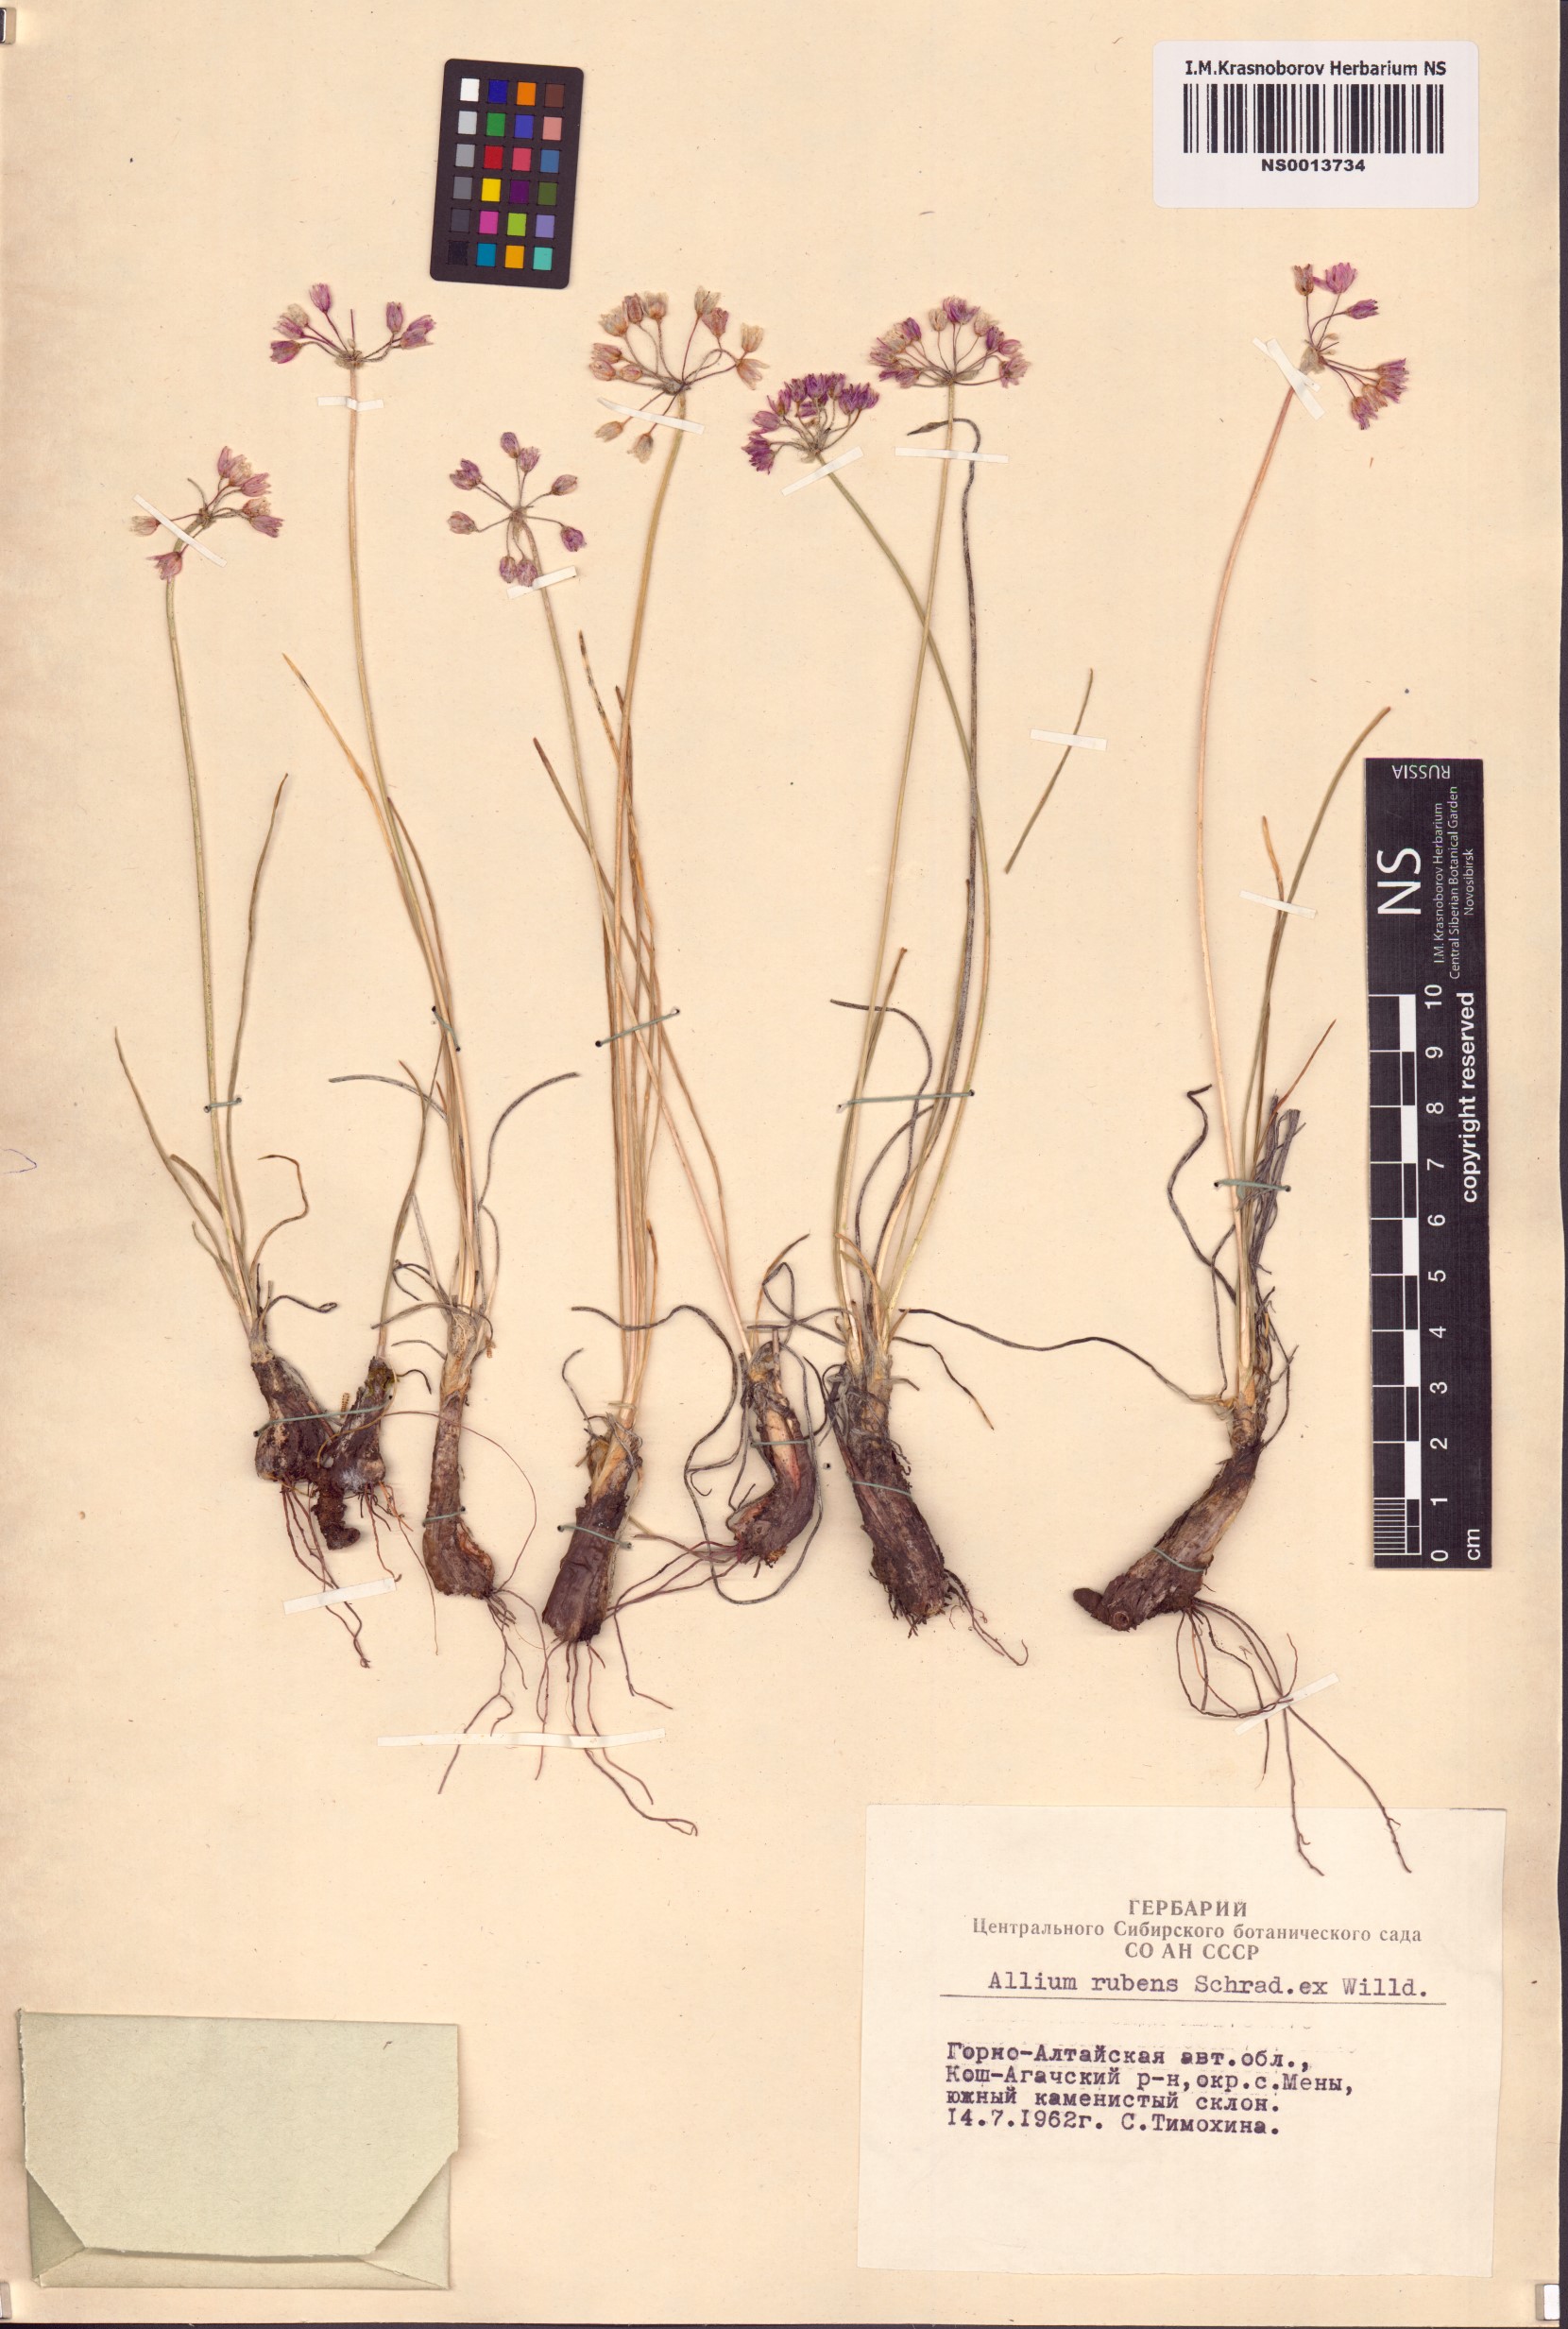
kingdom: Plantae
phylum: Tracheophyta
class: Liliopsida
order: Asparagales
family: Amaryllidaceae
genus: Allium
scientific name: Allium rubens
